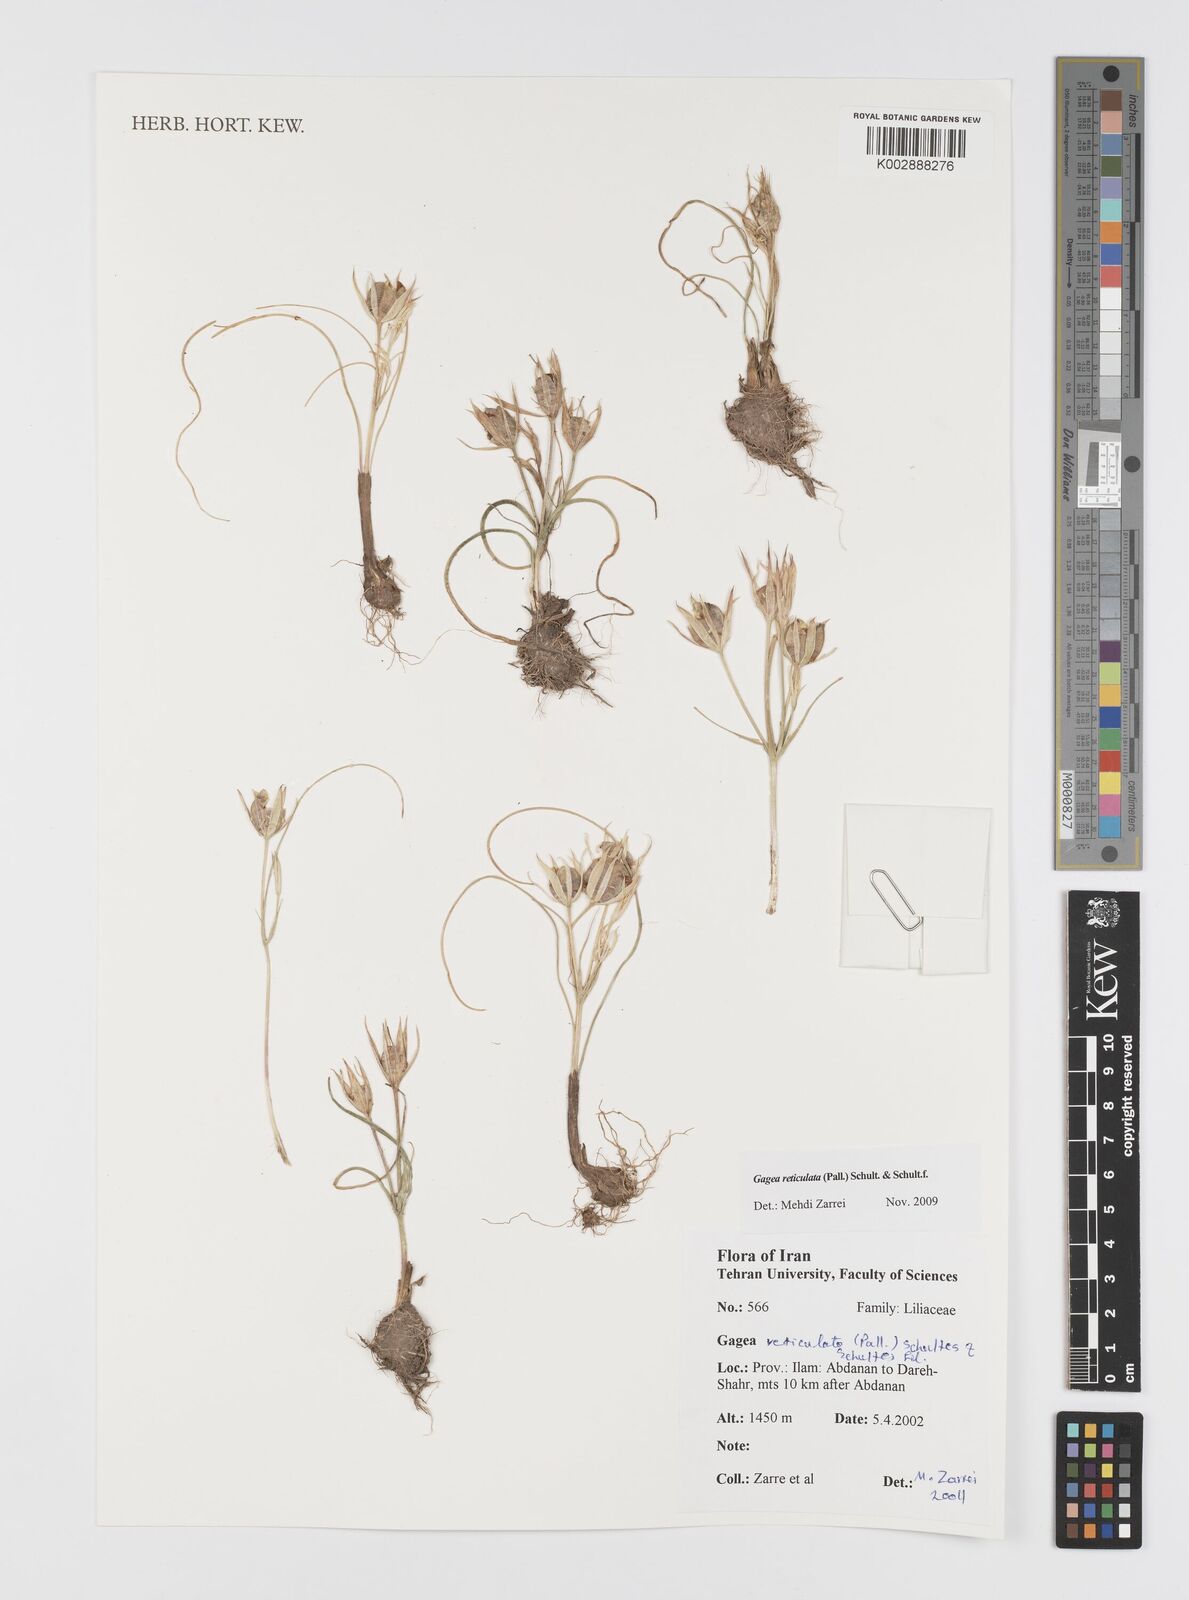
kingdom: Plantae
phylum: Tracheophyta
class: Liliopsida
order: Liliales
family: Liliaceae
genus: Gagea
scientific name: Gagea reticulata
